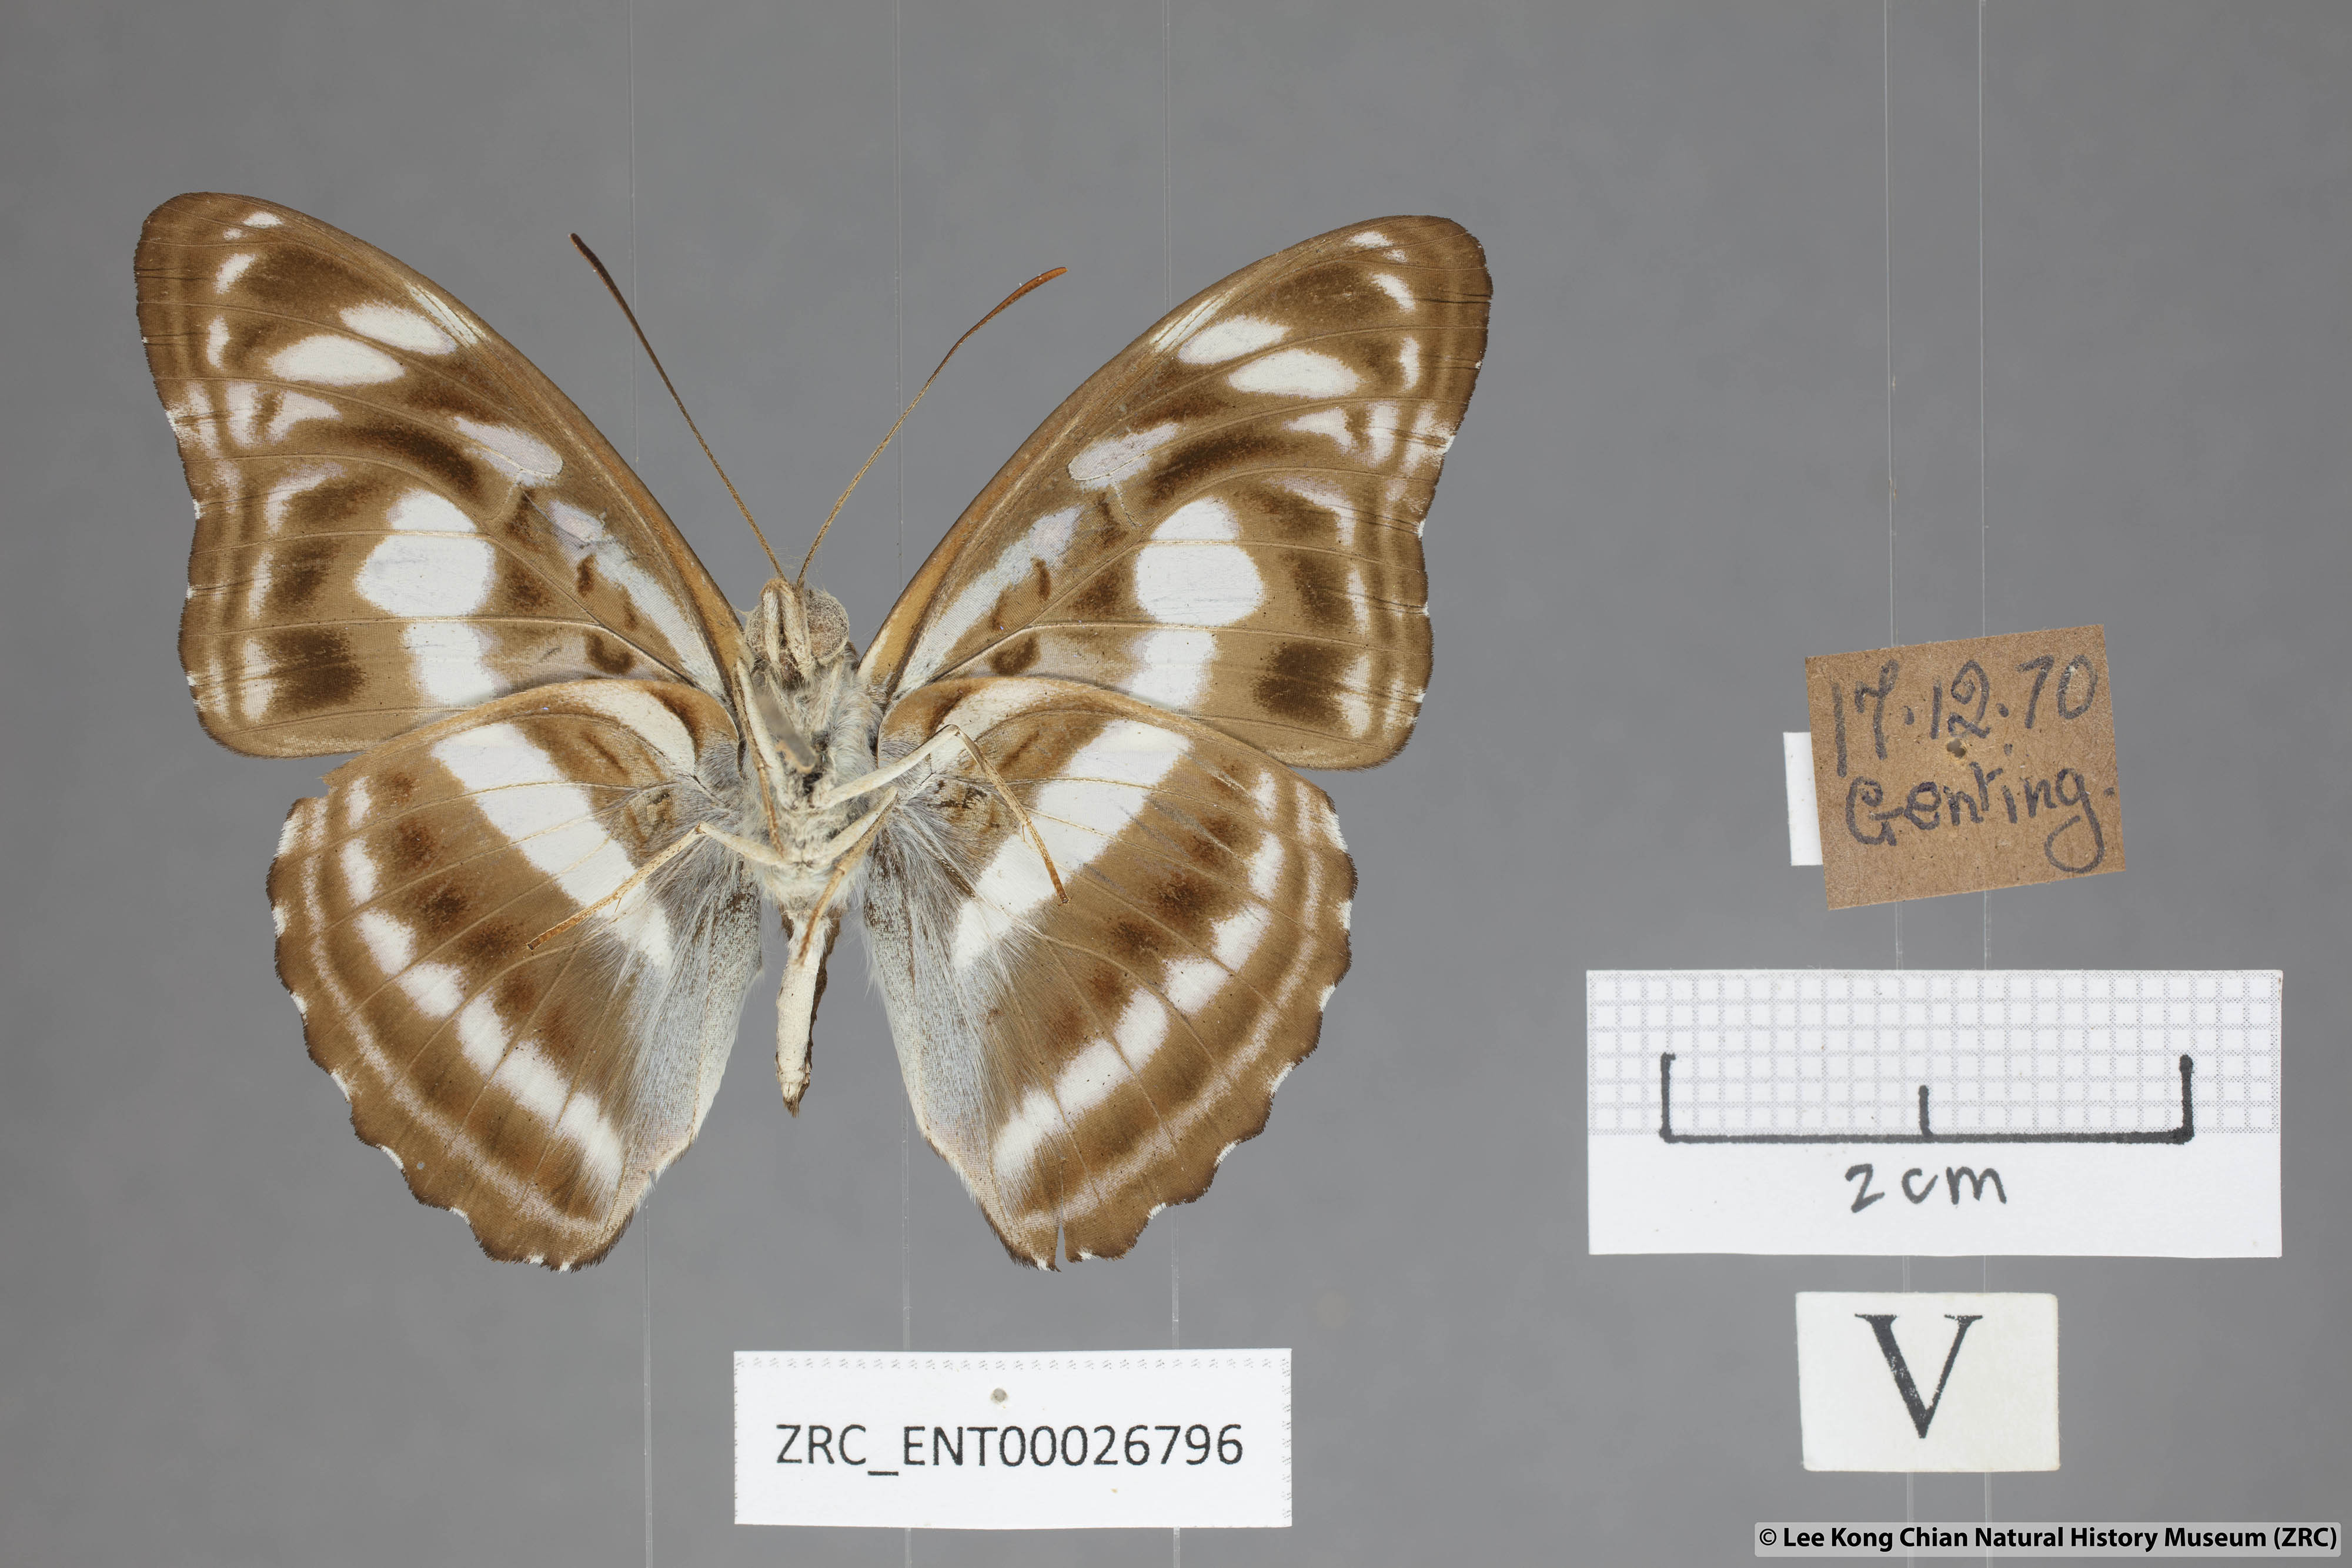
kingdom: Animalia
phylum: Arthropoda
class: Insecta
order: Lepidoptera
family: Nymphalidae
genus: Parathyma
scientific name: Parathyma selenophora
